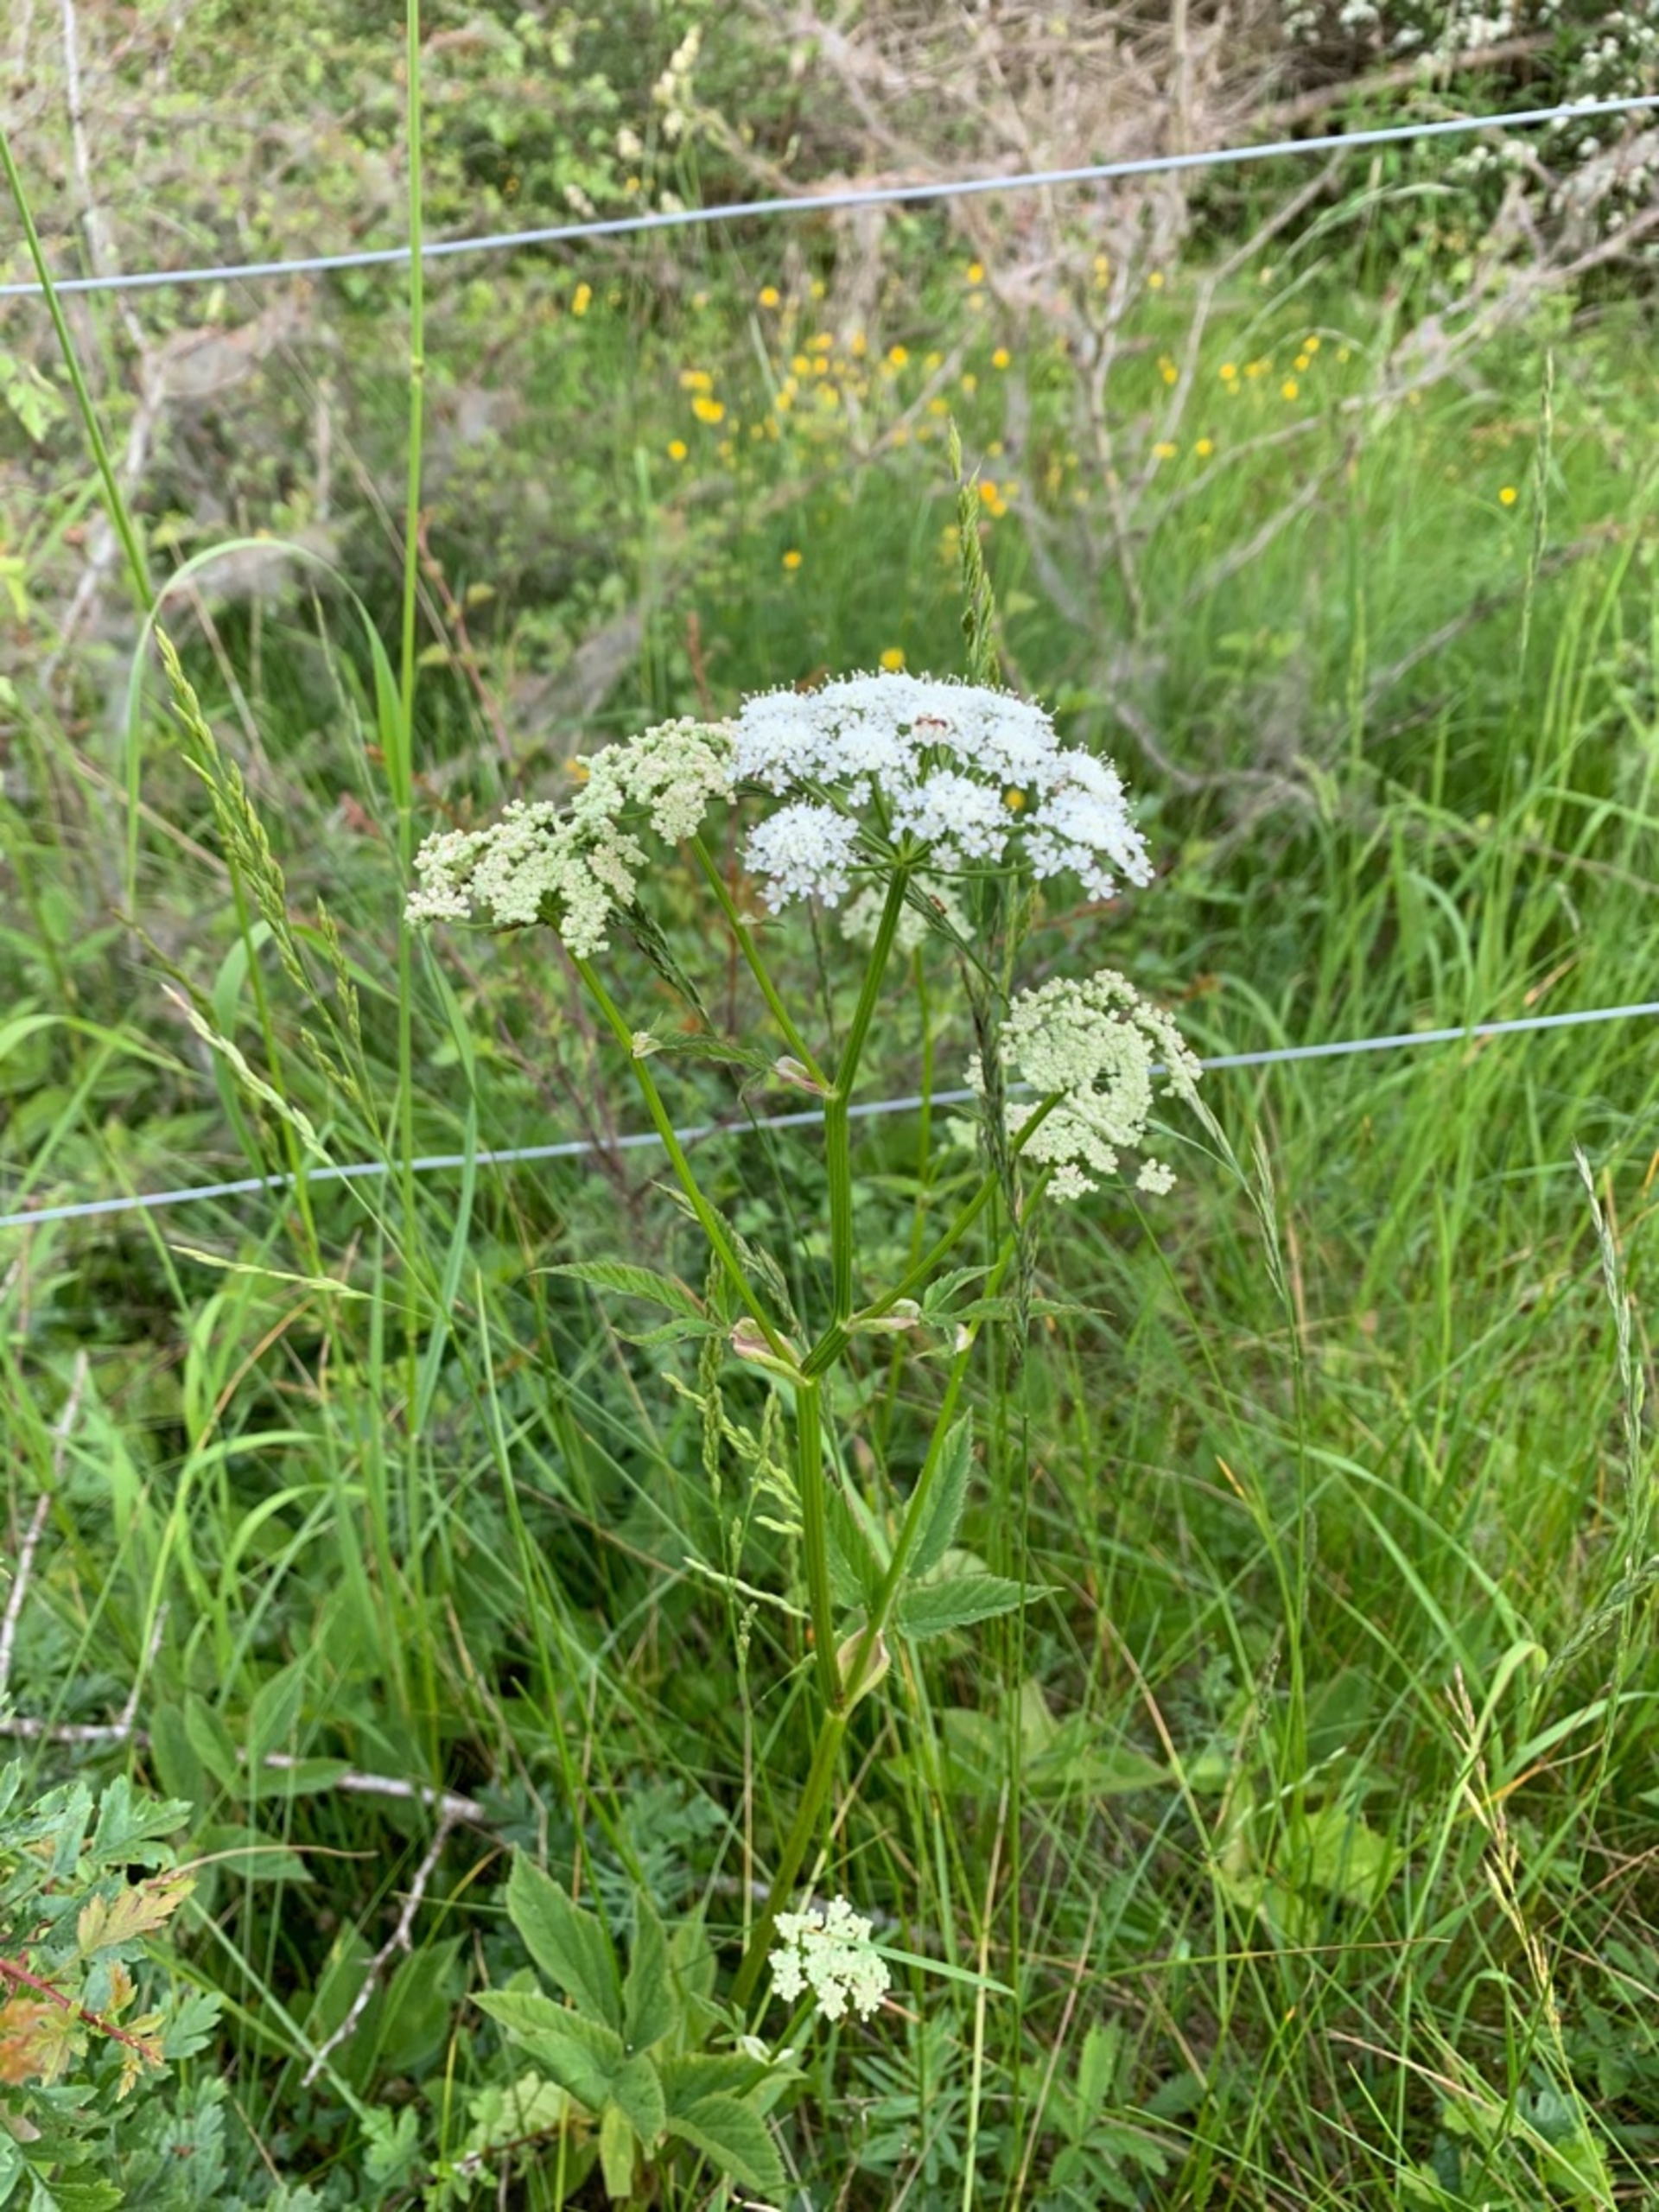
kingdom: Plantae
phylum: Tracheophyta
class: Magnoliopsida
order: Apiales
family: Apiaceae
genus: Aegopodium
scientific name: Aegopodium podagraria
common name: Skvalderkål
